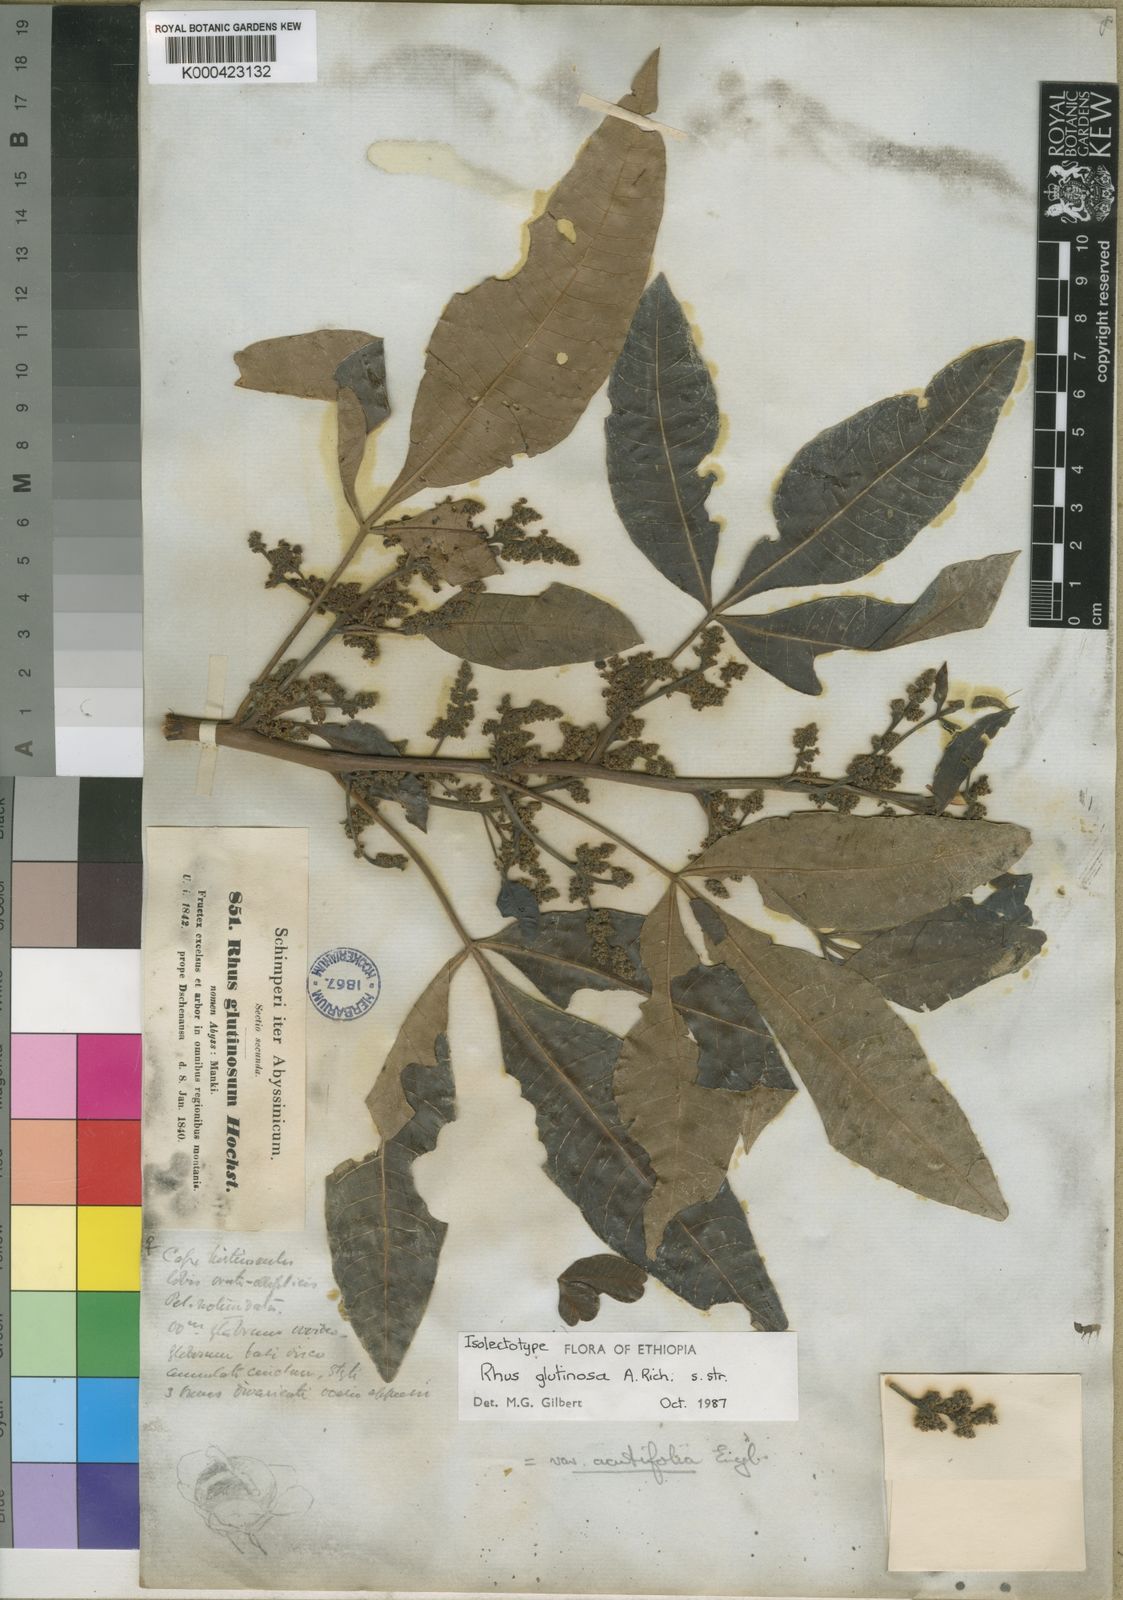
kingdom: Plantae
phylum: Tracheophyta
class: Magnoliopsida
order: Sapindales
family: Anacardiaceae
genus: Searsia
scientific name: Searsia glutinosa
